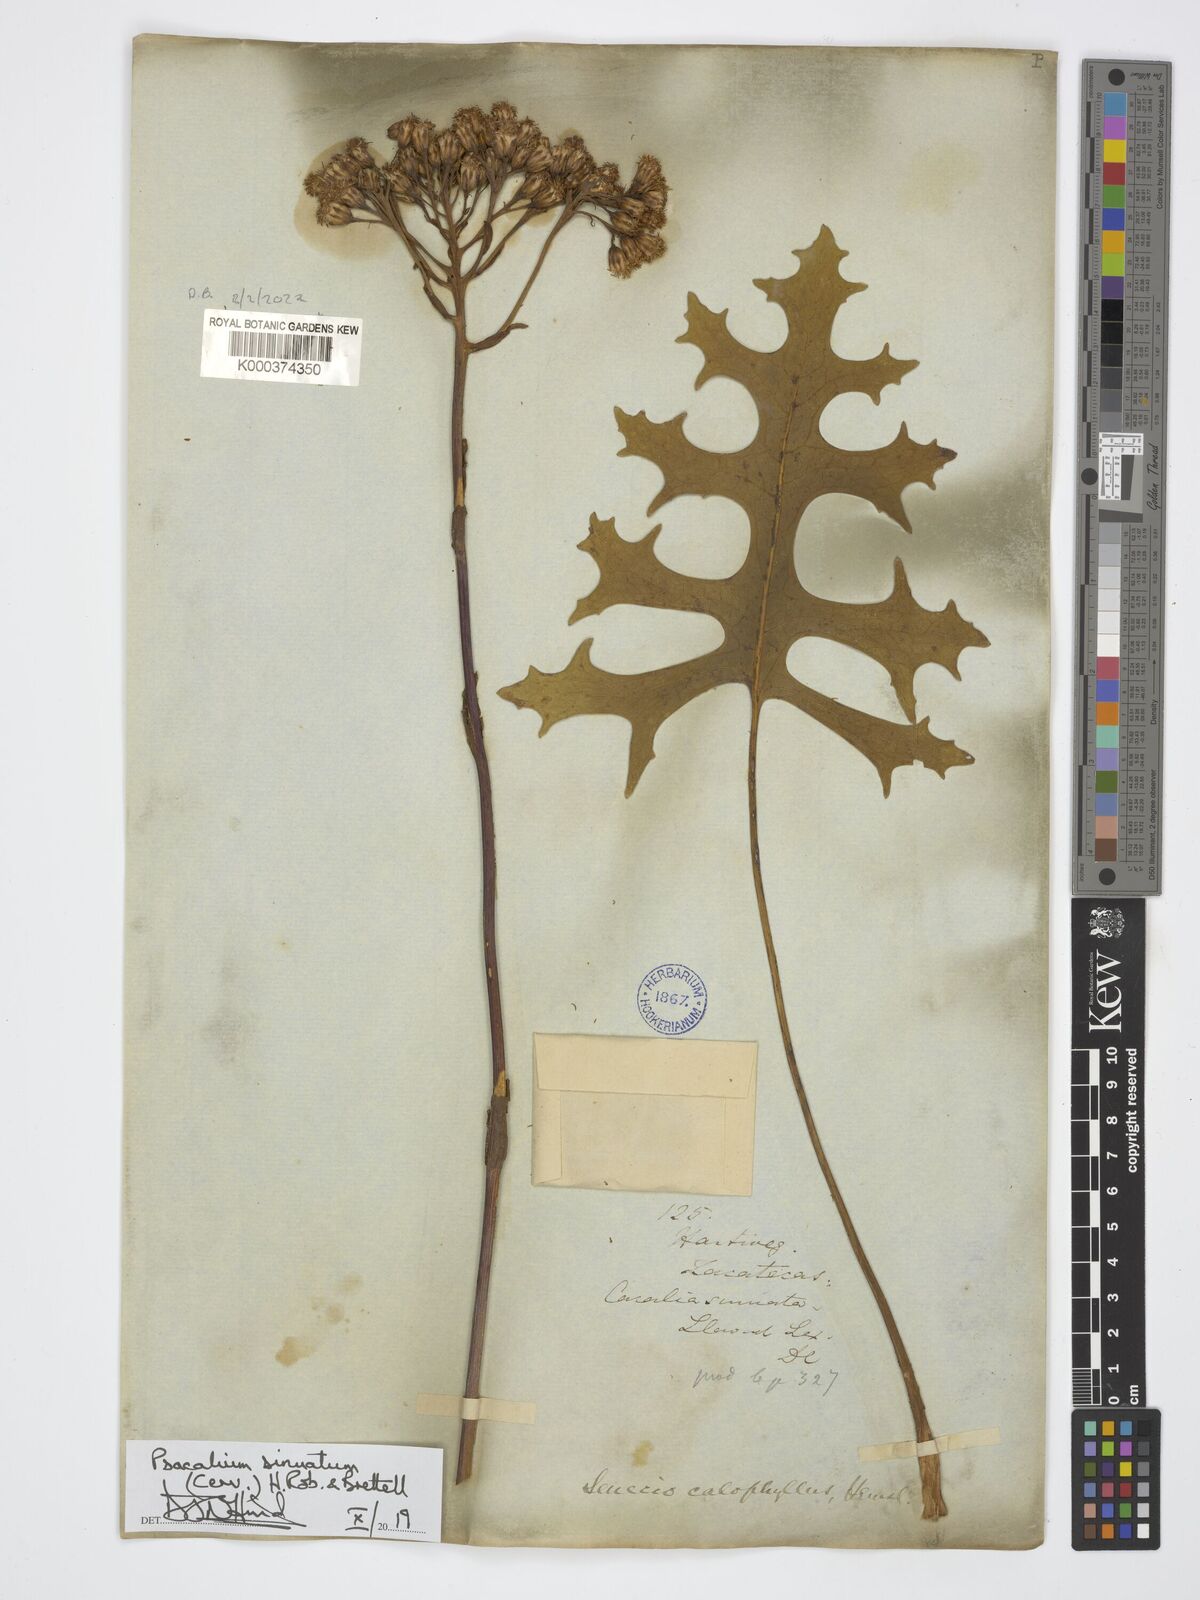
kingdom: Plantae
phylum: Tracheophyta
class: Magnoliopsida
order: Asterales
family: Asteraceae
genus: Psacalium
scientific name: Psacalium sinuatum
